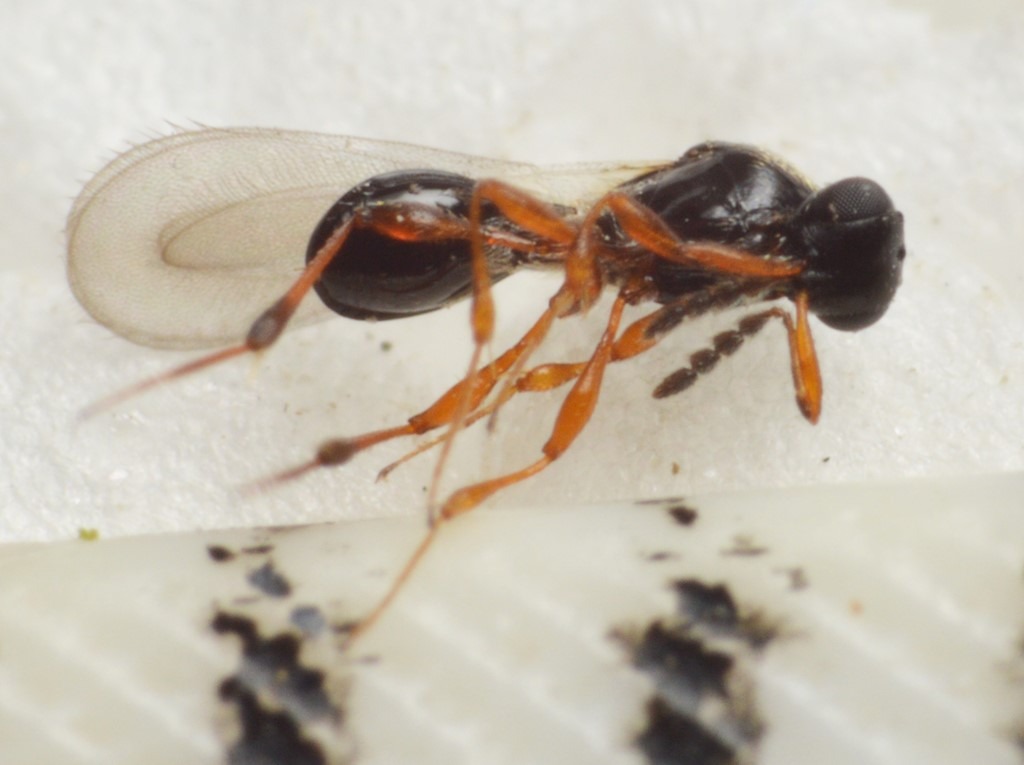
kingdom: Animalia
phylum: Arthropoda
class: Insecta
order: Hymenoptera
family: Platygastridae
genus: Leptacis
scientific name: Leptacis tipulae
